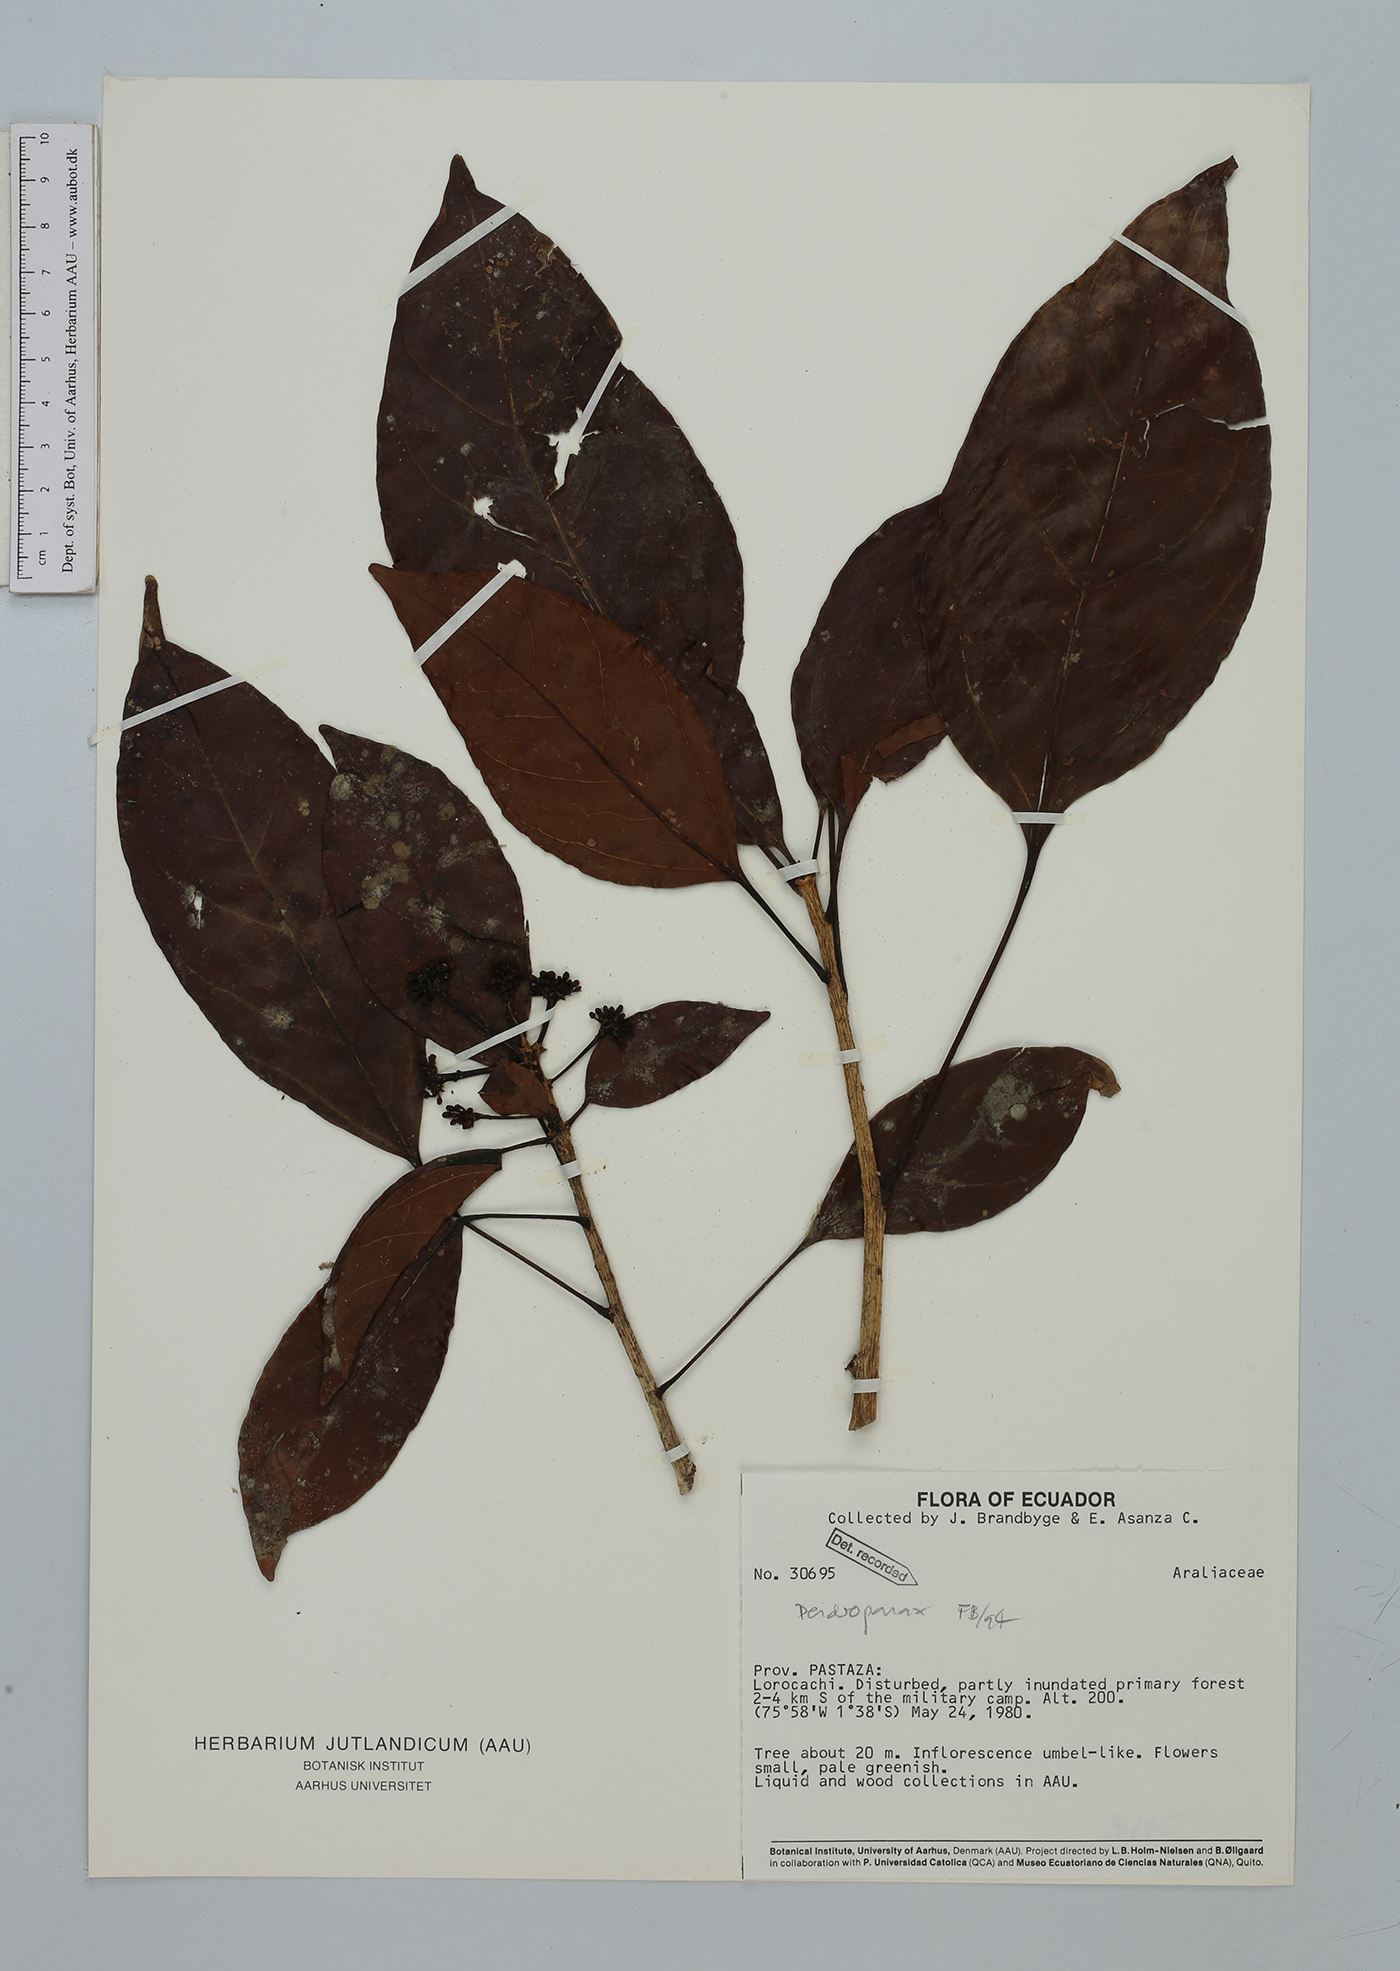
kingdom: Plantae
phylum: Tracheophyta
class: Magnoliopsida
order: Apiales
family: Araliaceae
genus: Dendropanax
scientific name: Dendropanax
